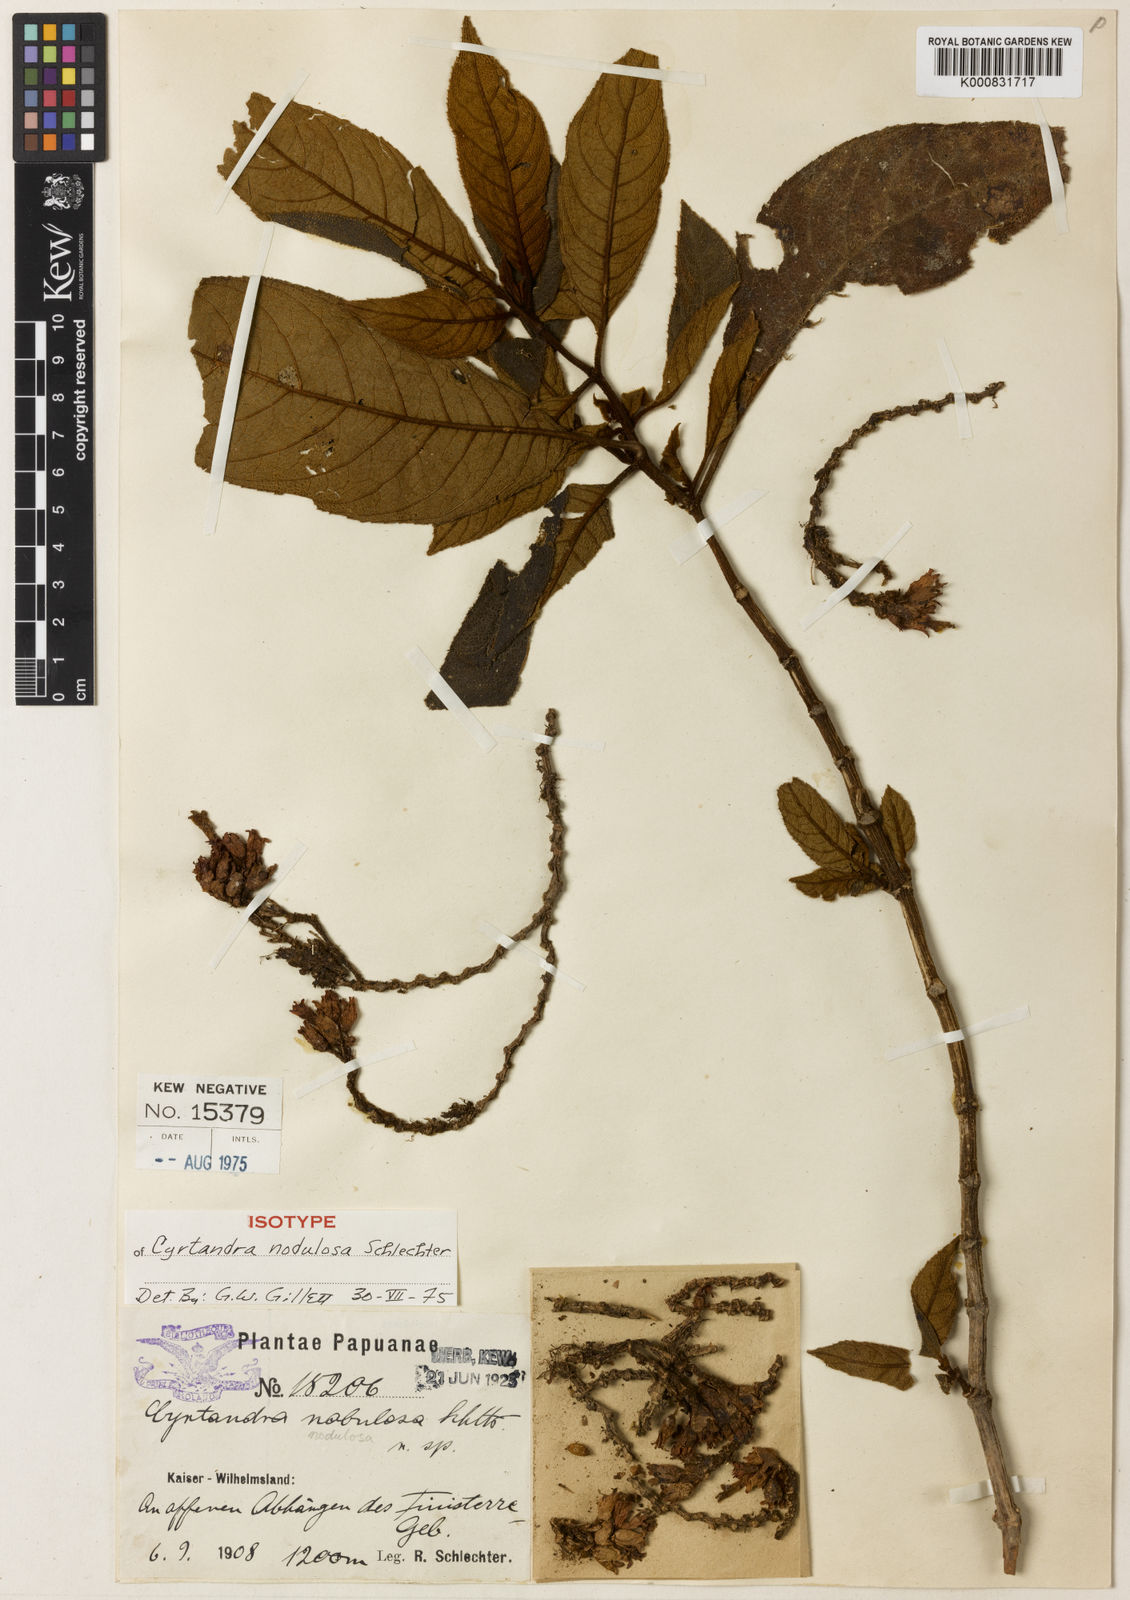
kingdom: Plantae
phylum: Tracheophyta
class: Magnoliopsida
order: Lamiales
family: Gesneriaceae
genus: Cyrtandra
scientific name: Cyrtandra nodulosa
